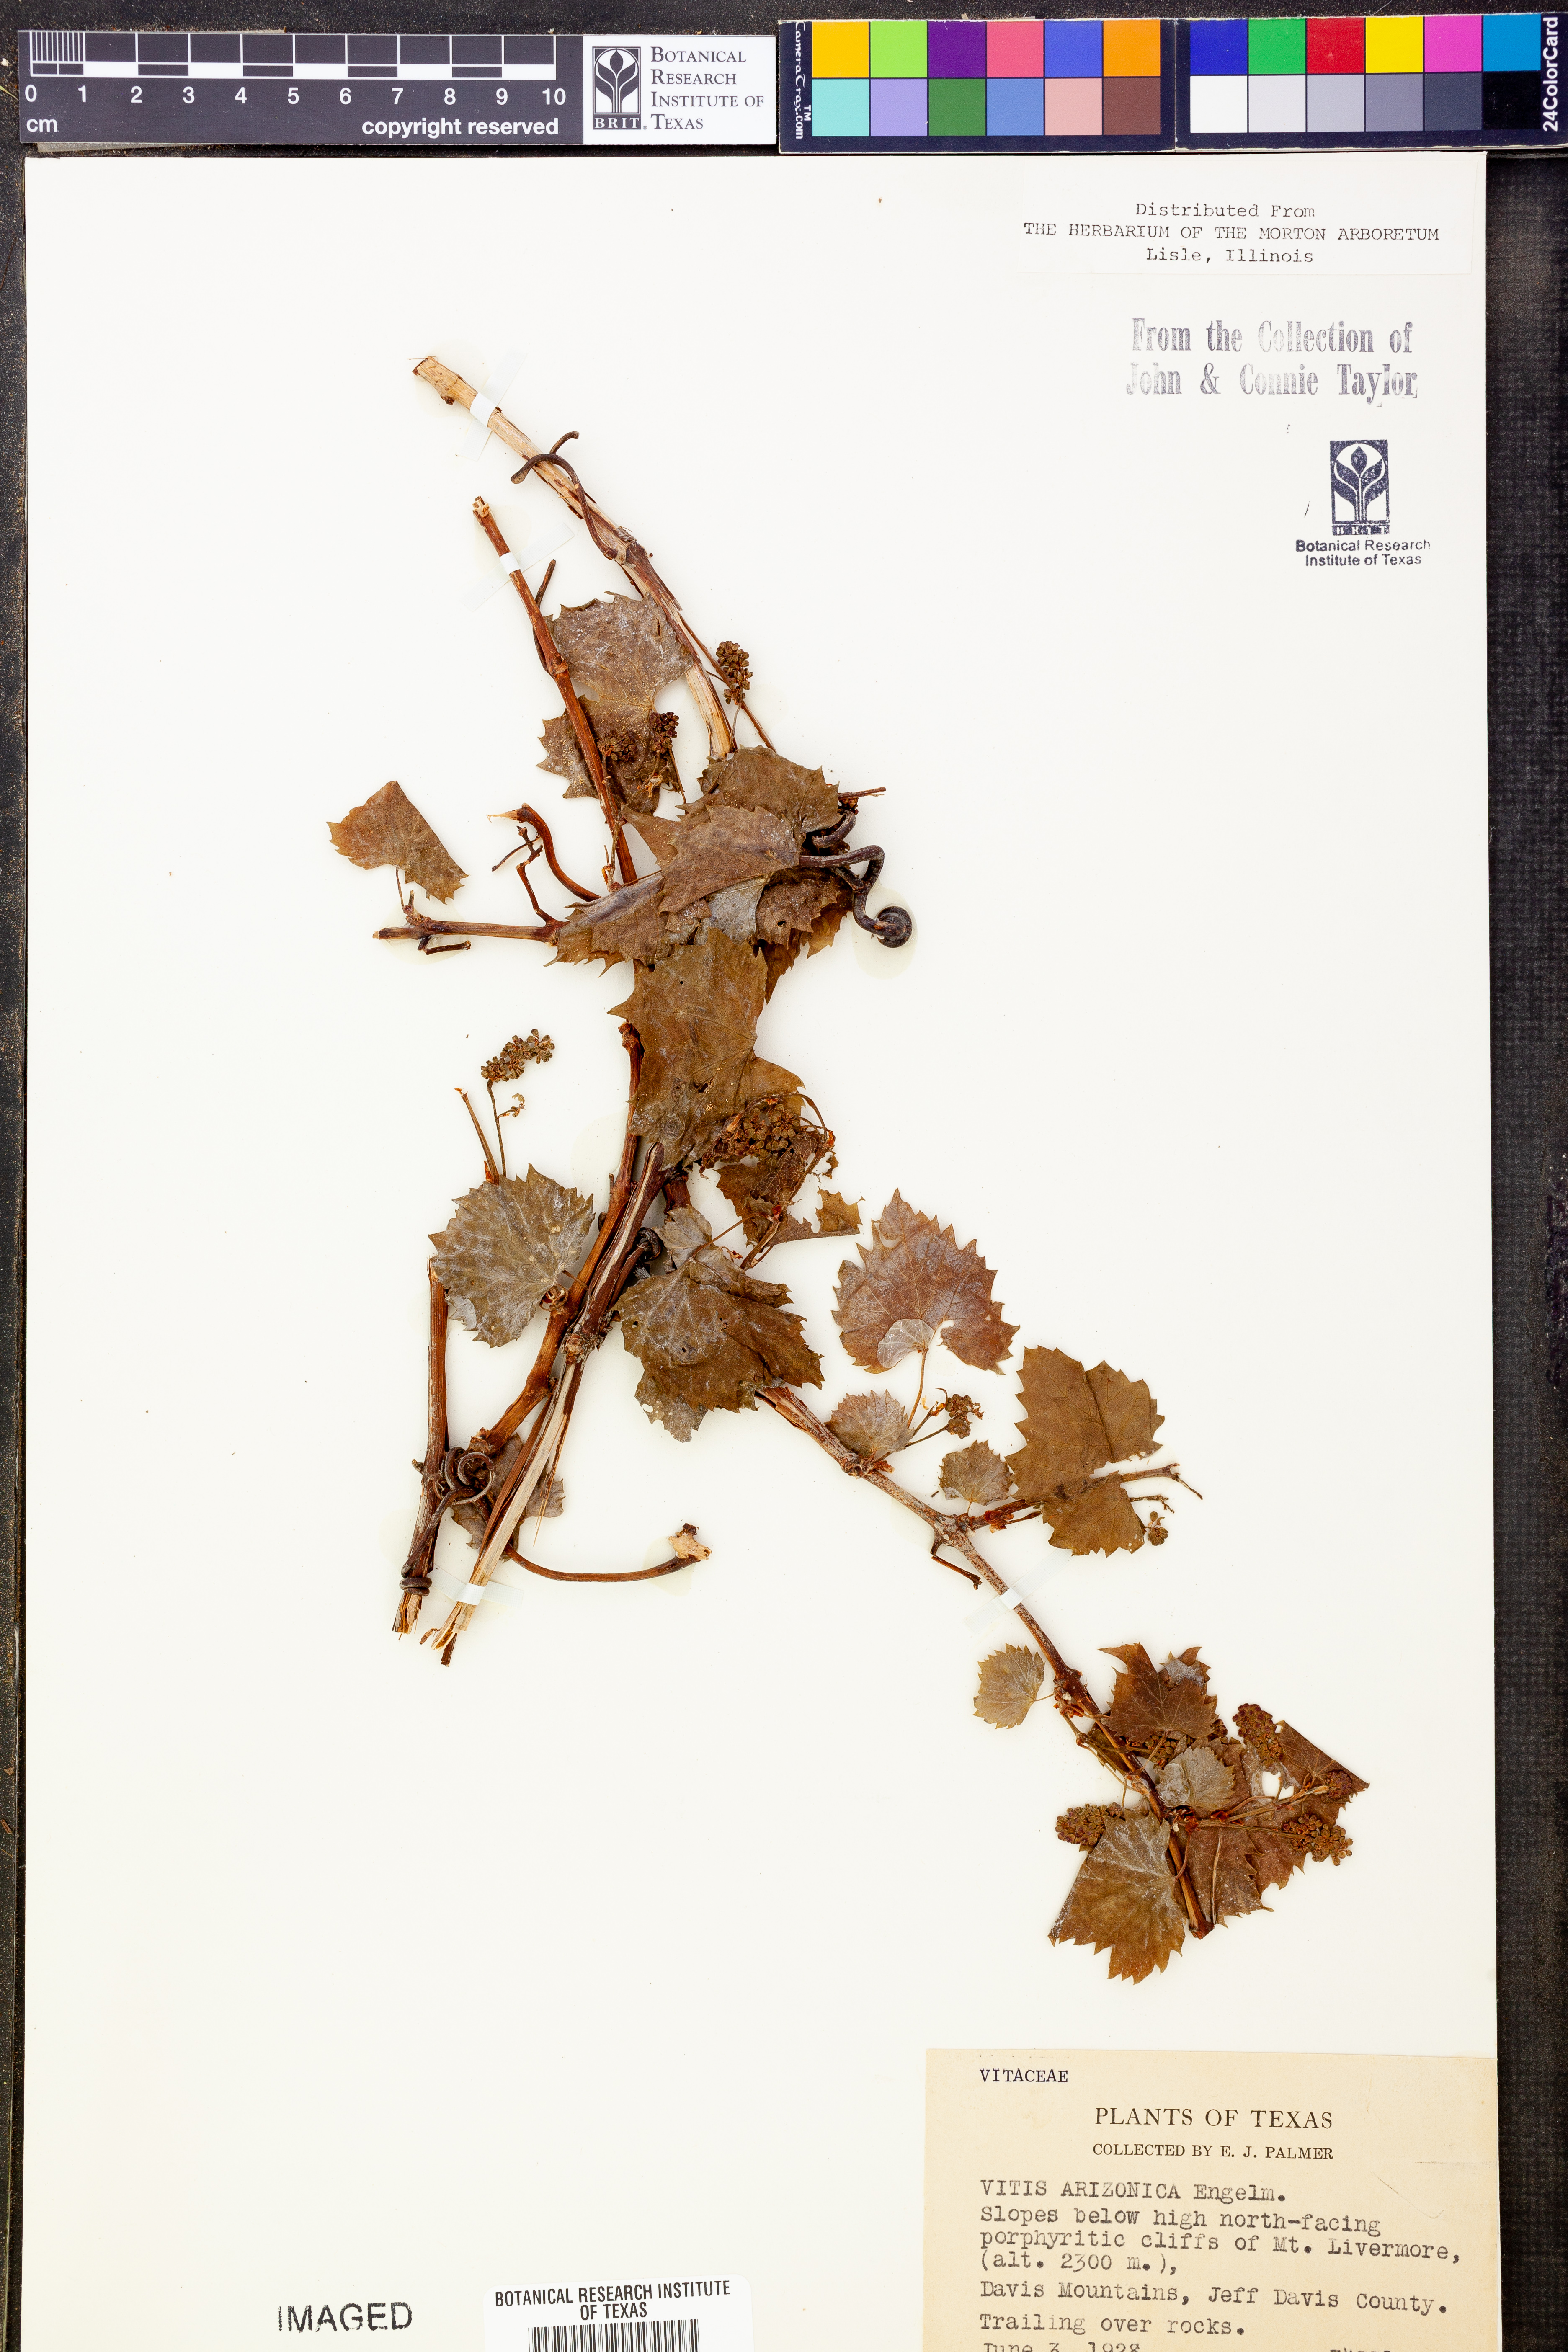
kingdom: Plantae
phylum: Tracheophyta
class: Magnoliopsida
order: Vitales
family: Vitaceae
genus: Vitis
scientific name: Vitis arizonica
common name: Canyon grape
